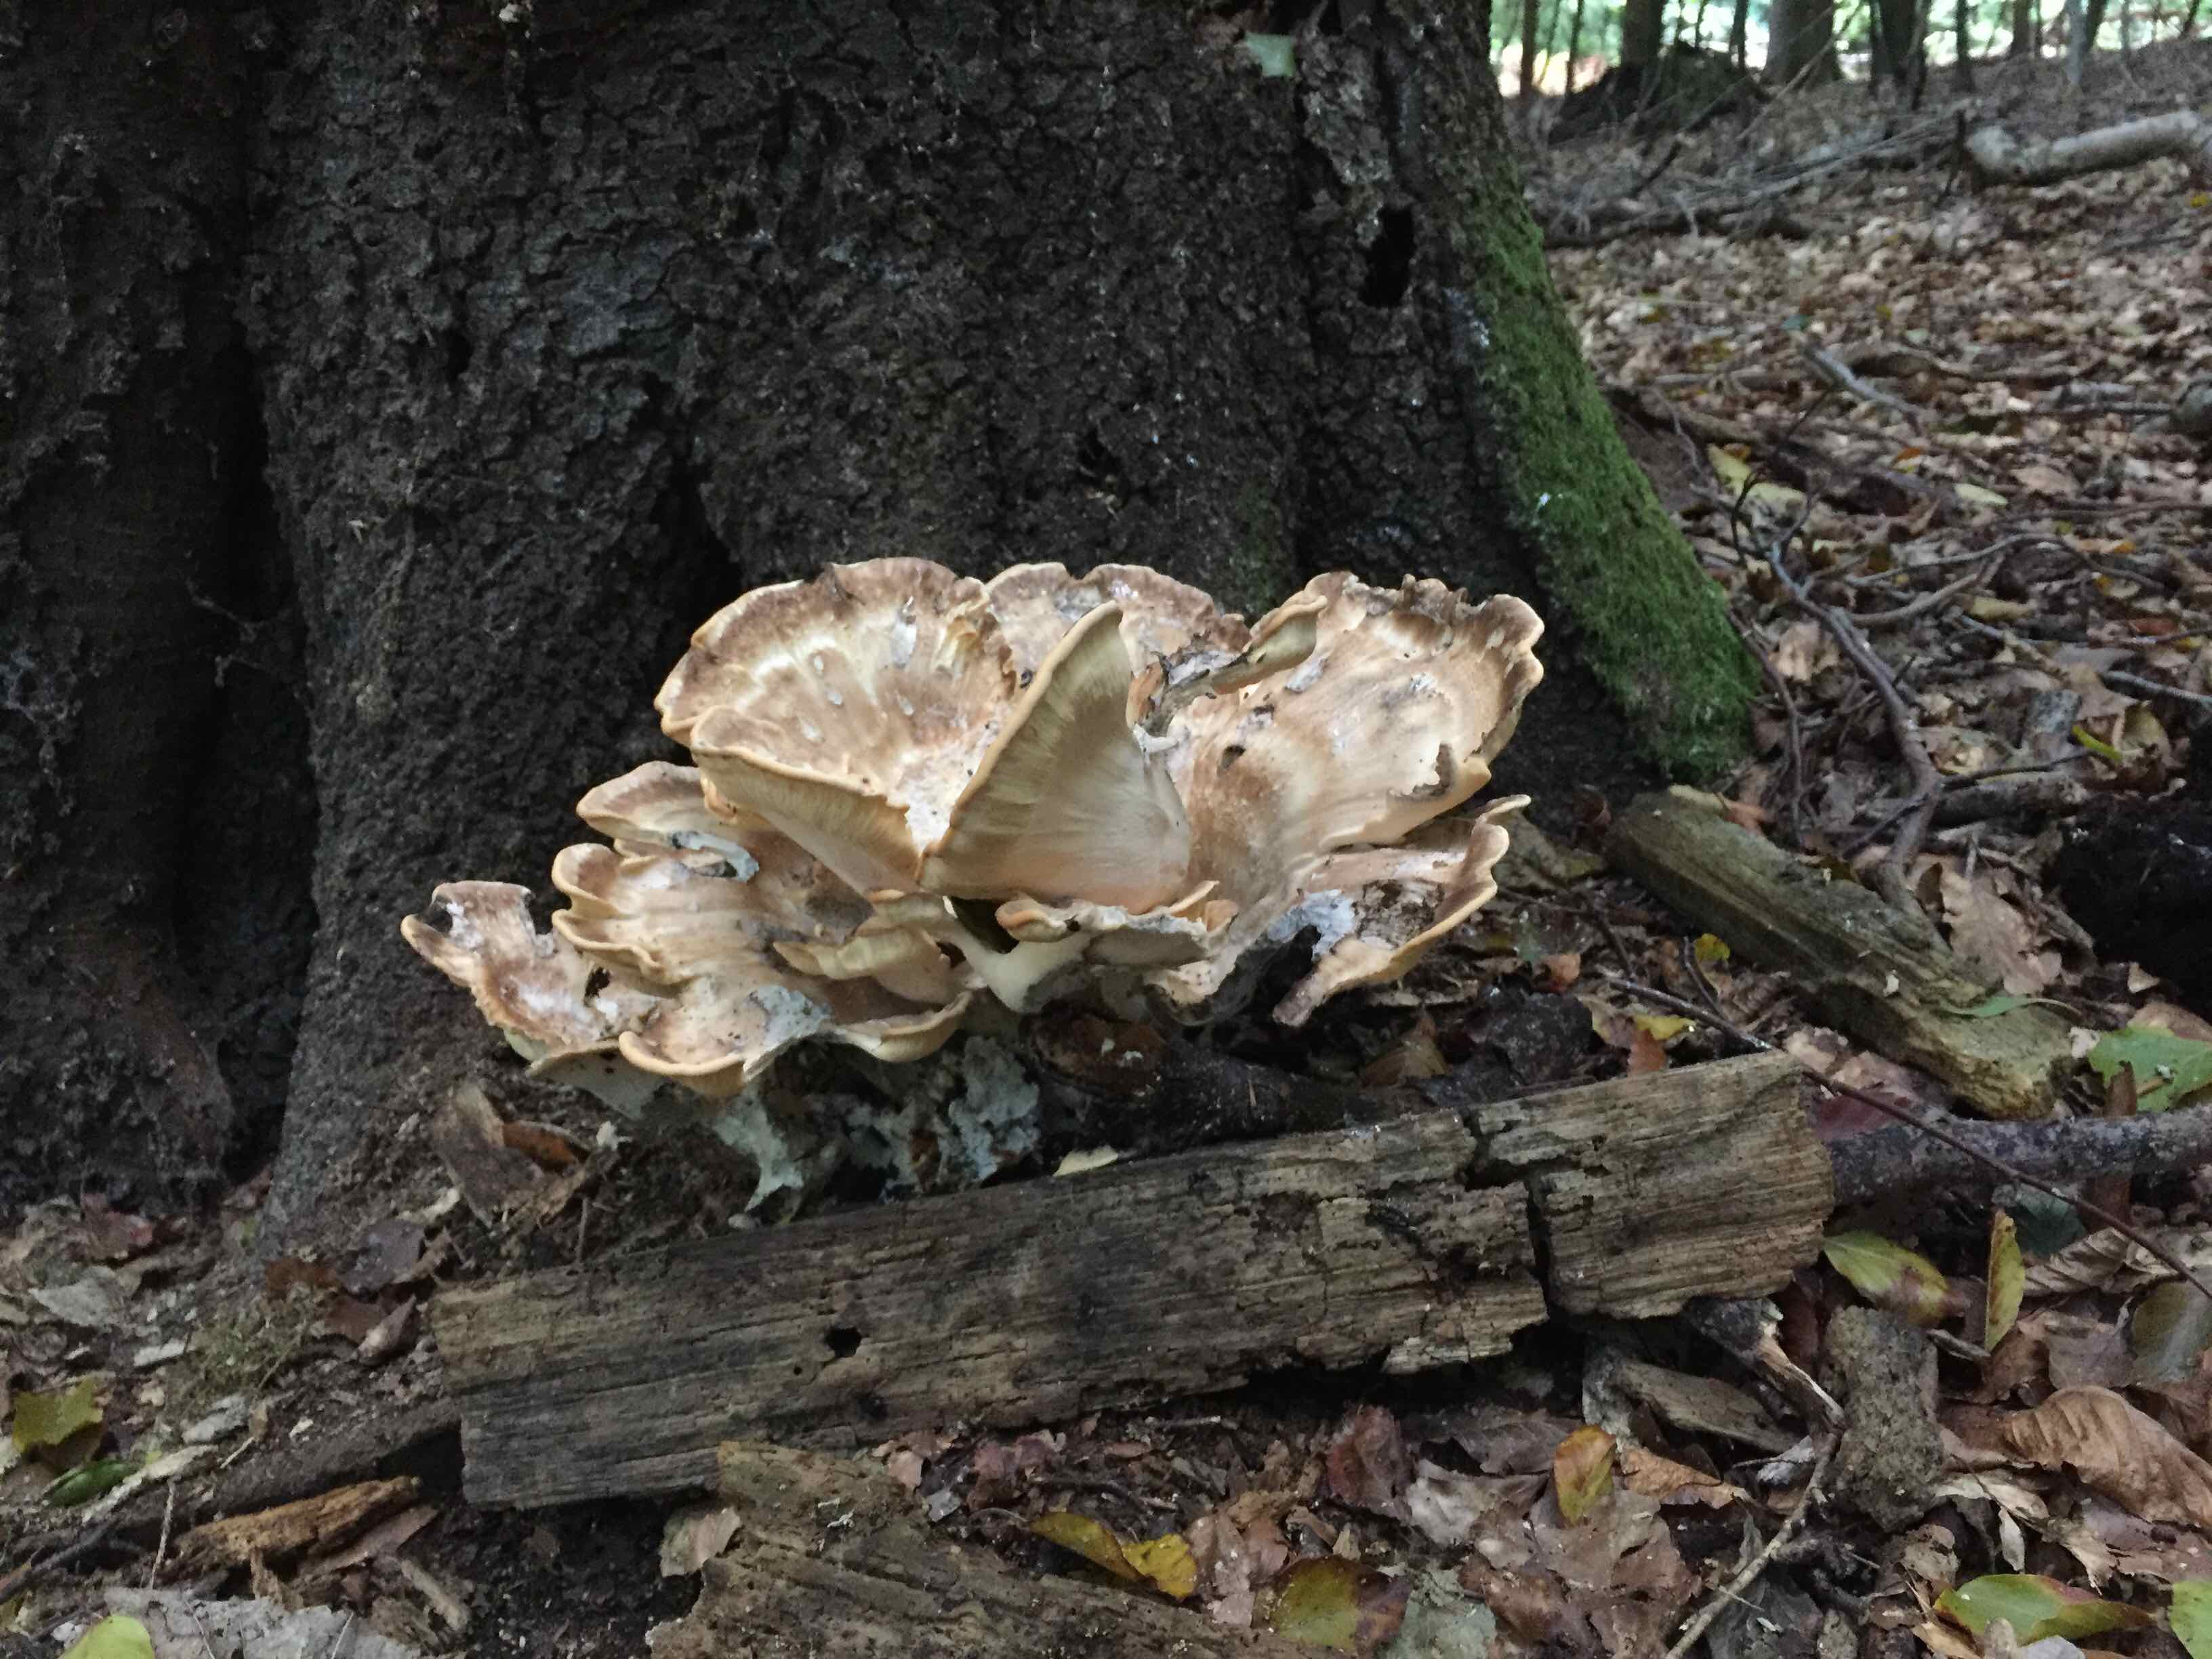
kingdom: Fungi
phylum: Basidiomycota
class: Agaricomycetes
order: Polyporales
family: Meripilaceae
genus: Meripilus
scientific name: Meripilus giganteus
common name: kæmpeporesvamp
